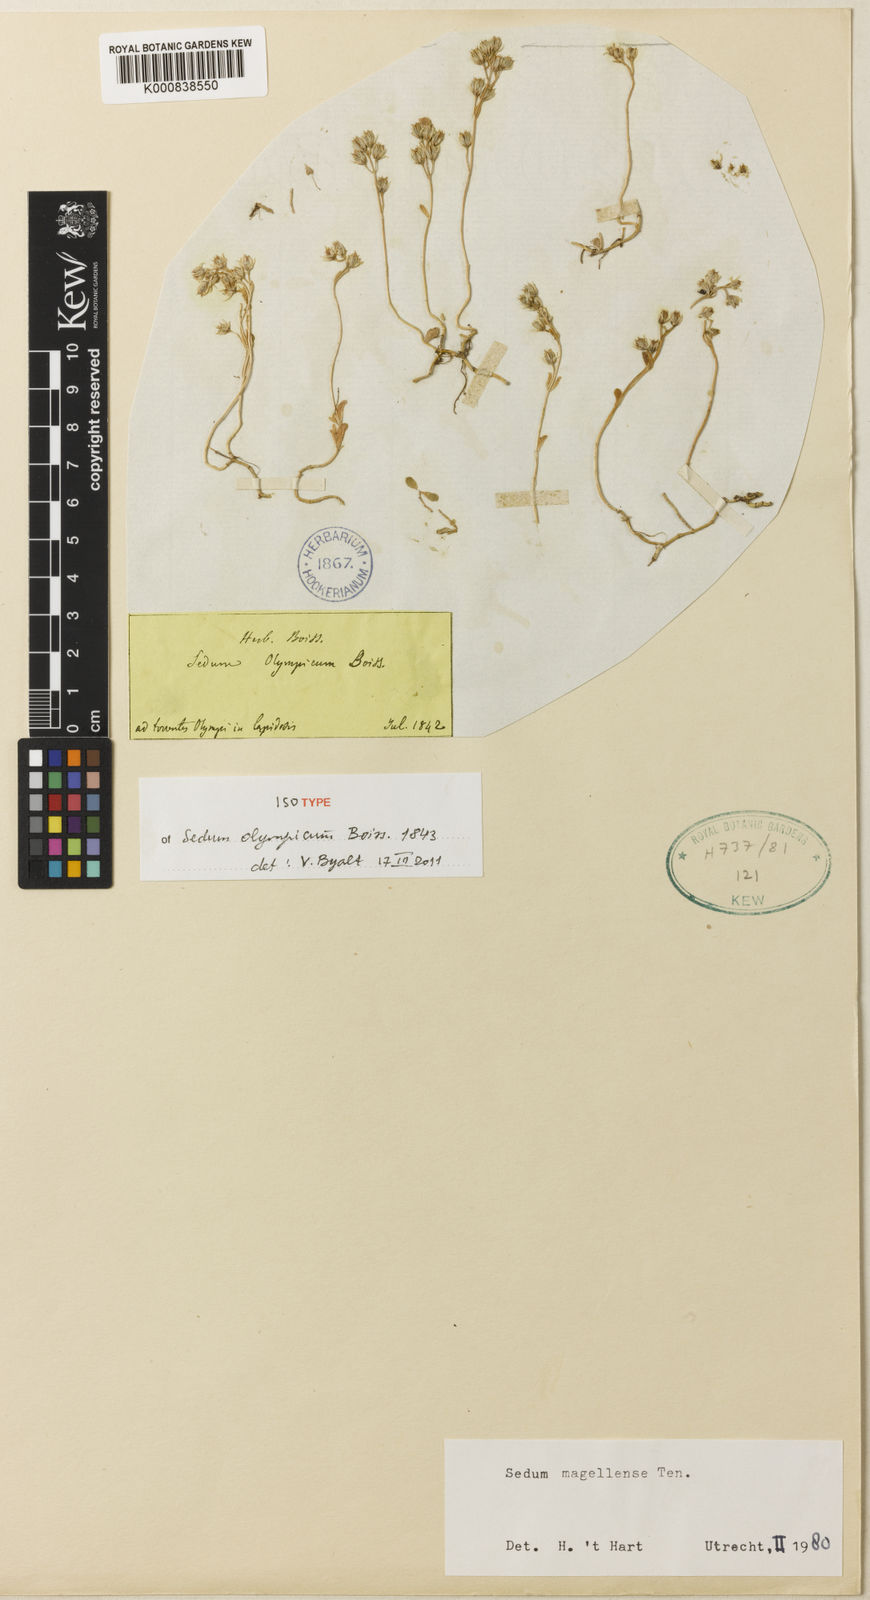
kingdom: Plantae
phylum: Tracheophyta
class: Magnoliopsida
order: Saxifragales
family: Crassulaceae
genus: Sedum
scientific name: Sedum magellense
